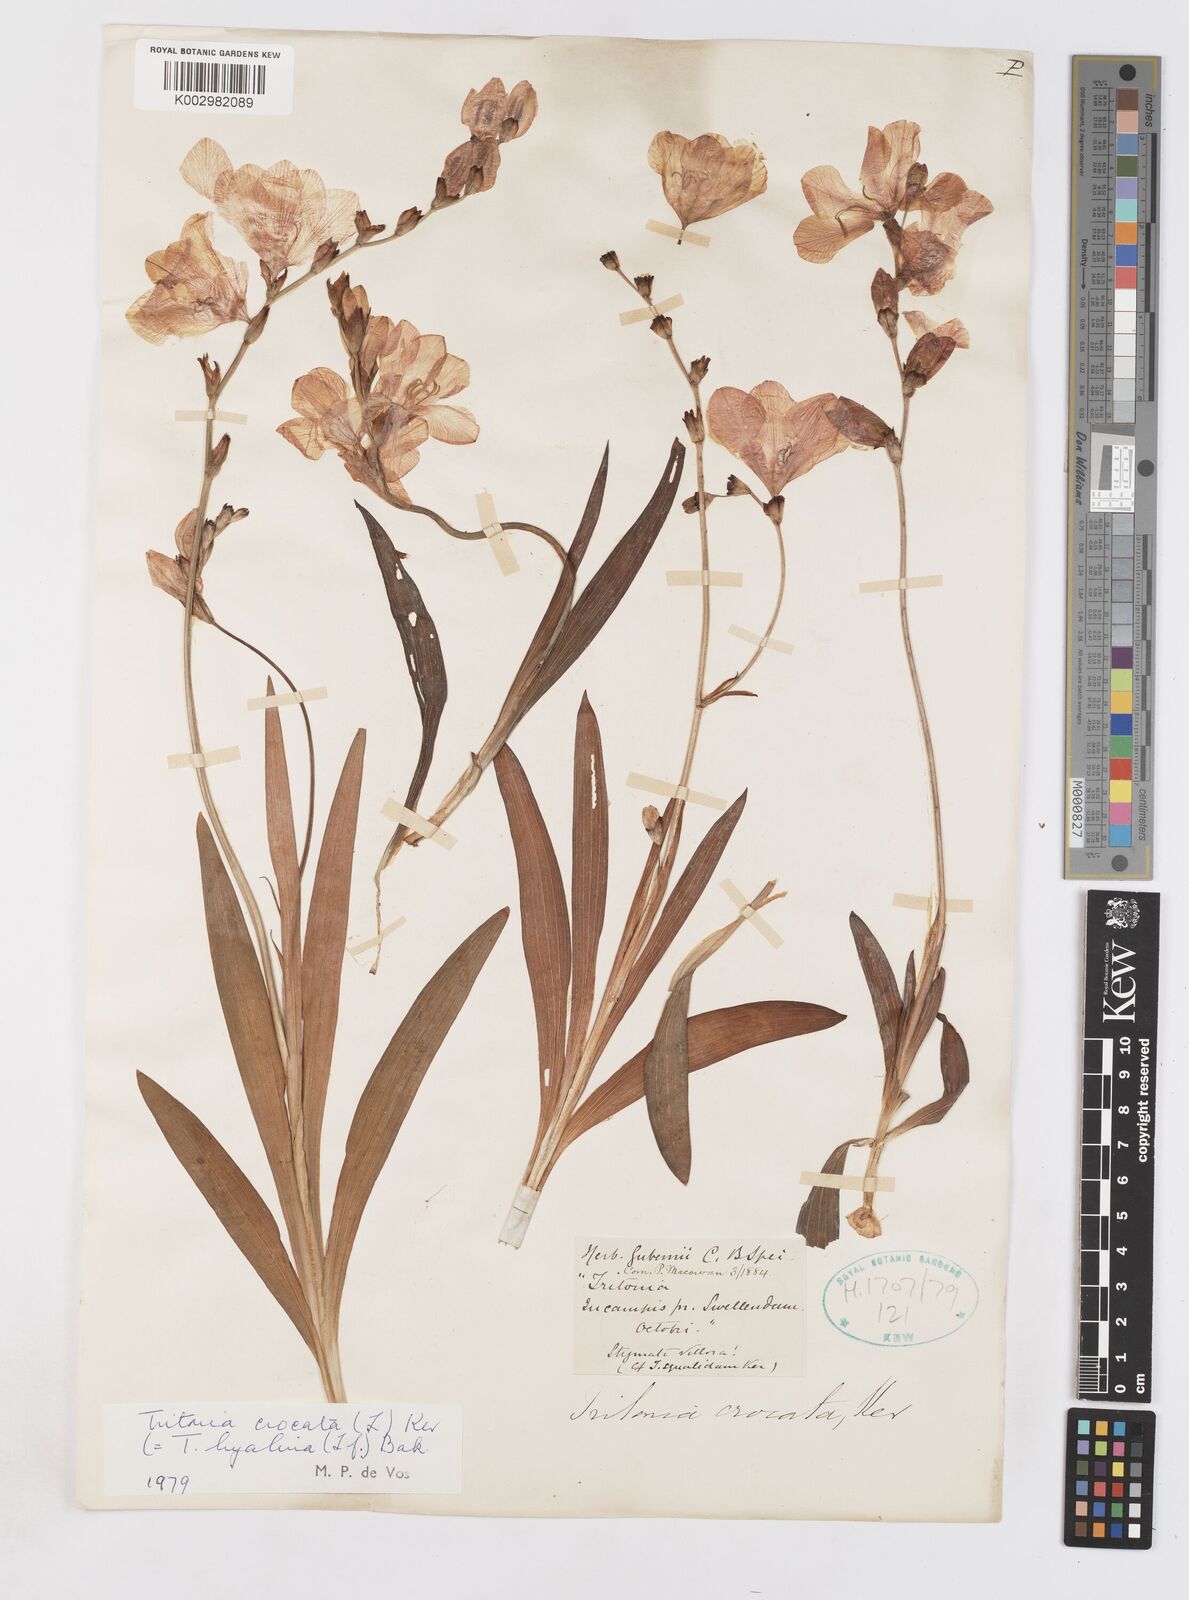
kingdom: Plantae
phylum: Tracheophyta
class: Liliopsida
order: Asparagales
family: Iridaceae
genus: Tritonia
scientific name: Tritonia crocata
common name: Flame-freesia
